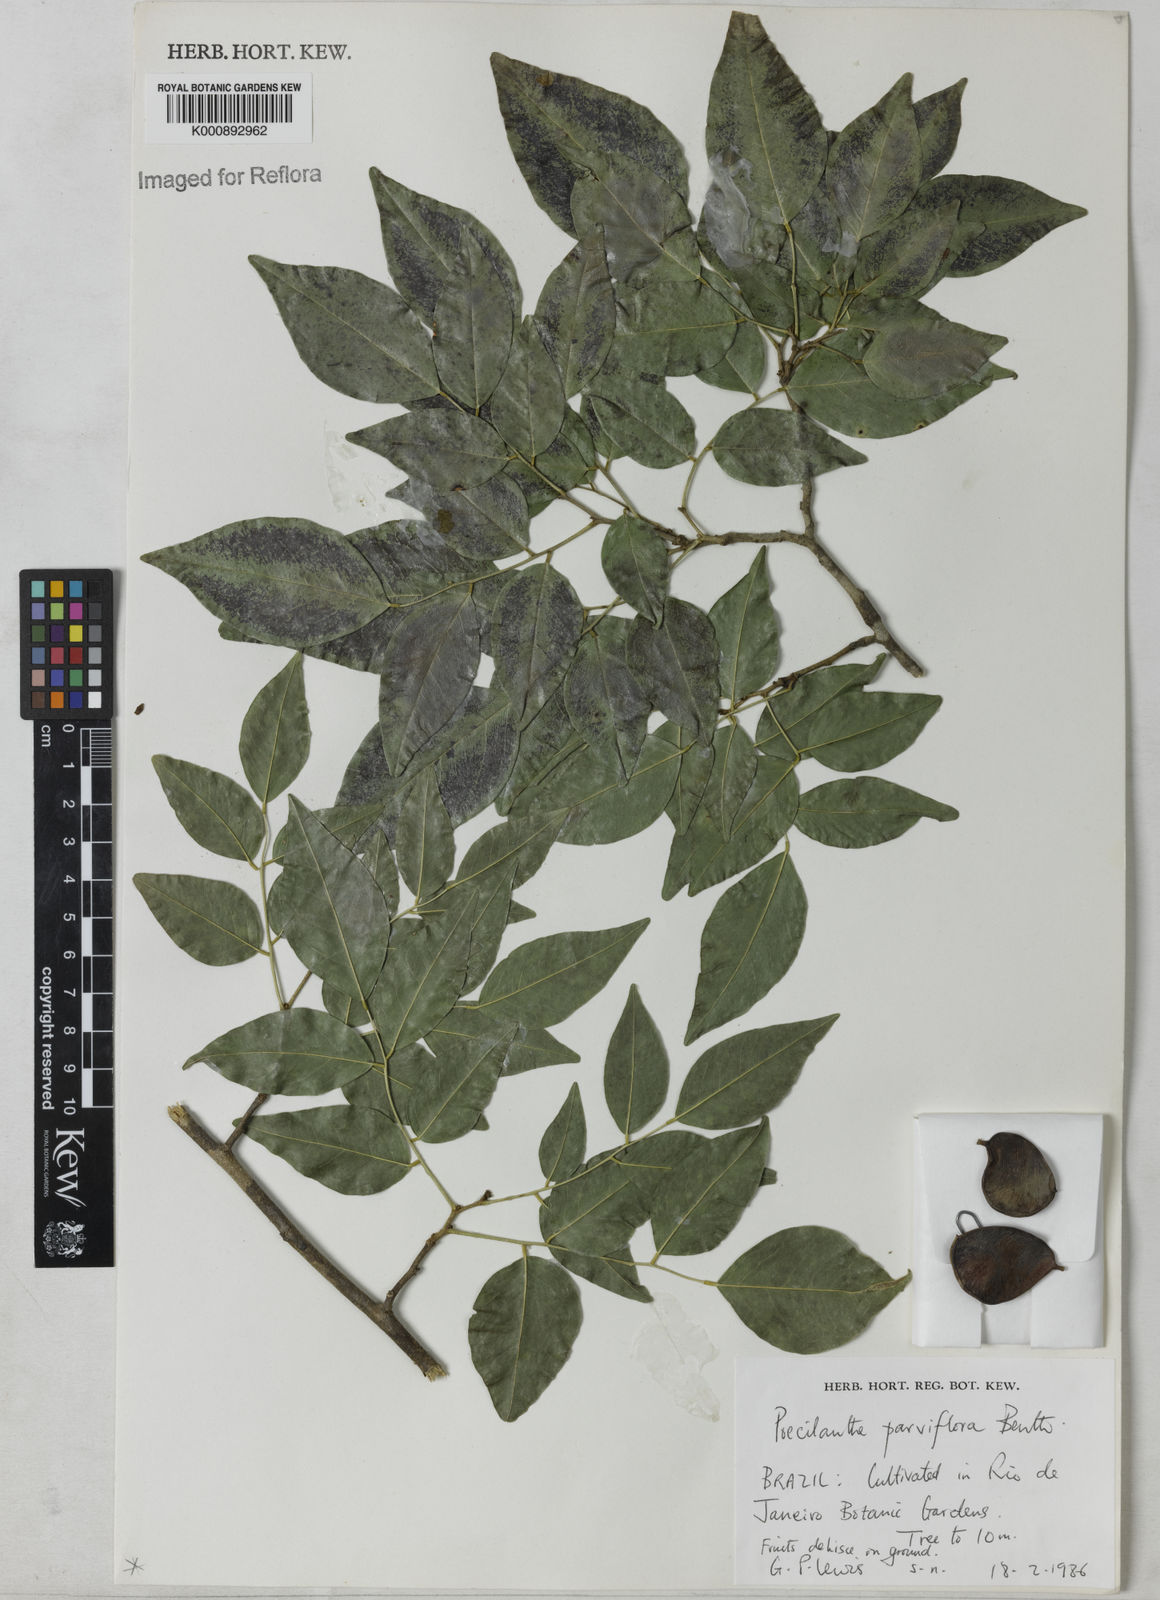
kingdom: Plantae
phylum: Tracheophyta
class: Magnoliopsida
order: Fabales
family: Fabaceae
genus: Poecilanthe
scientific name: Poecilanthe parviflora
